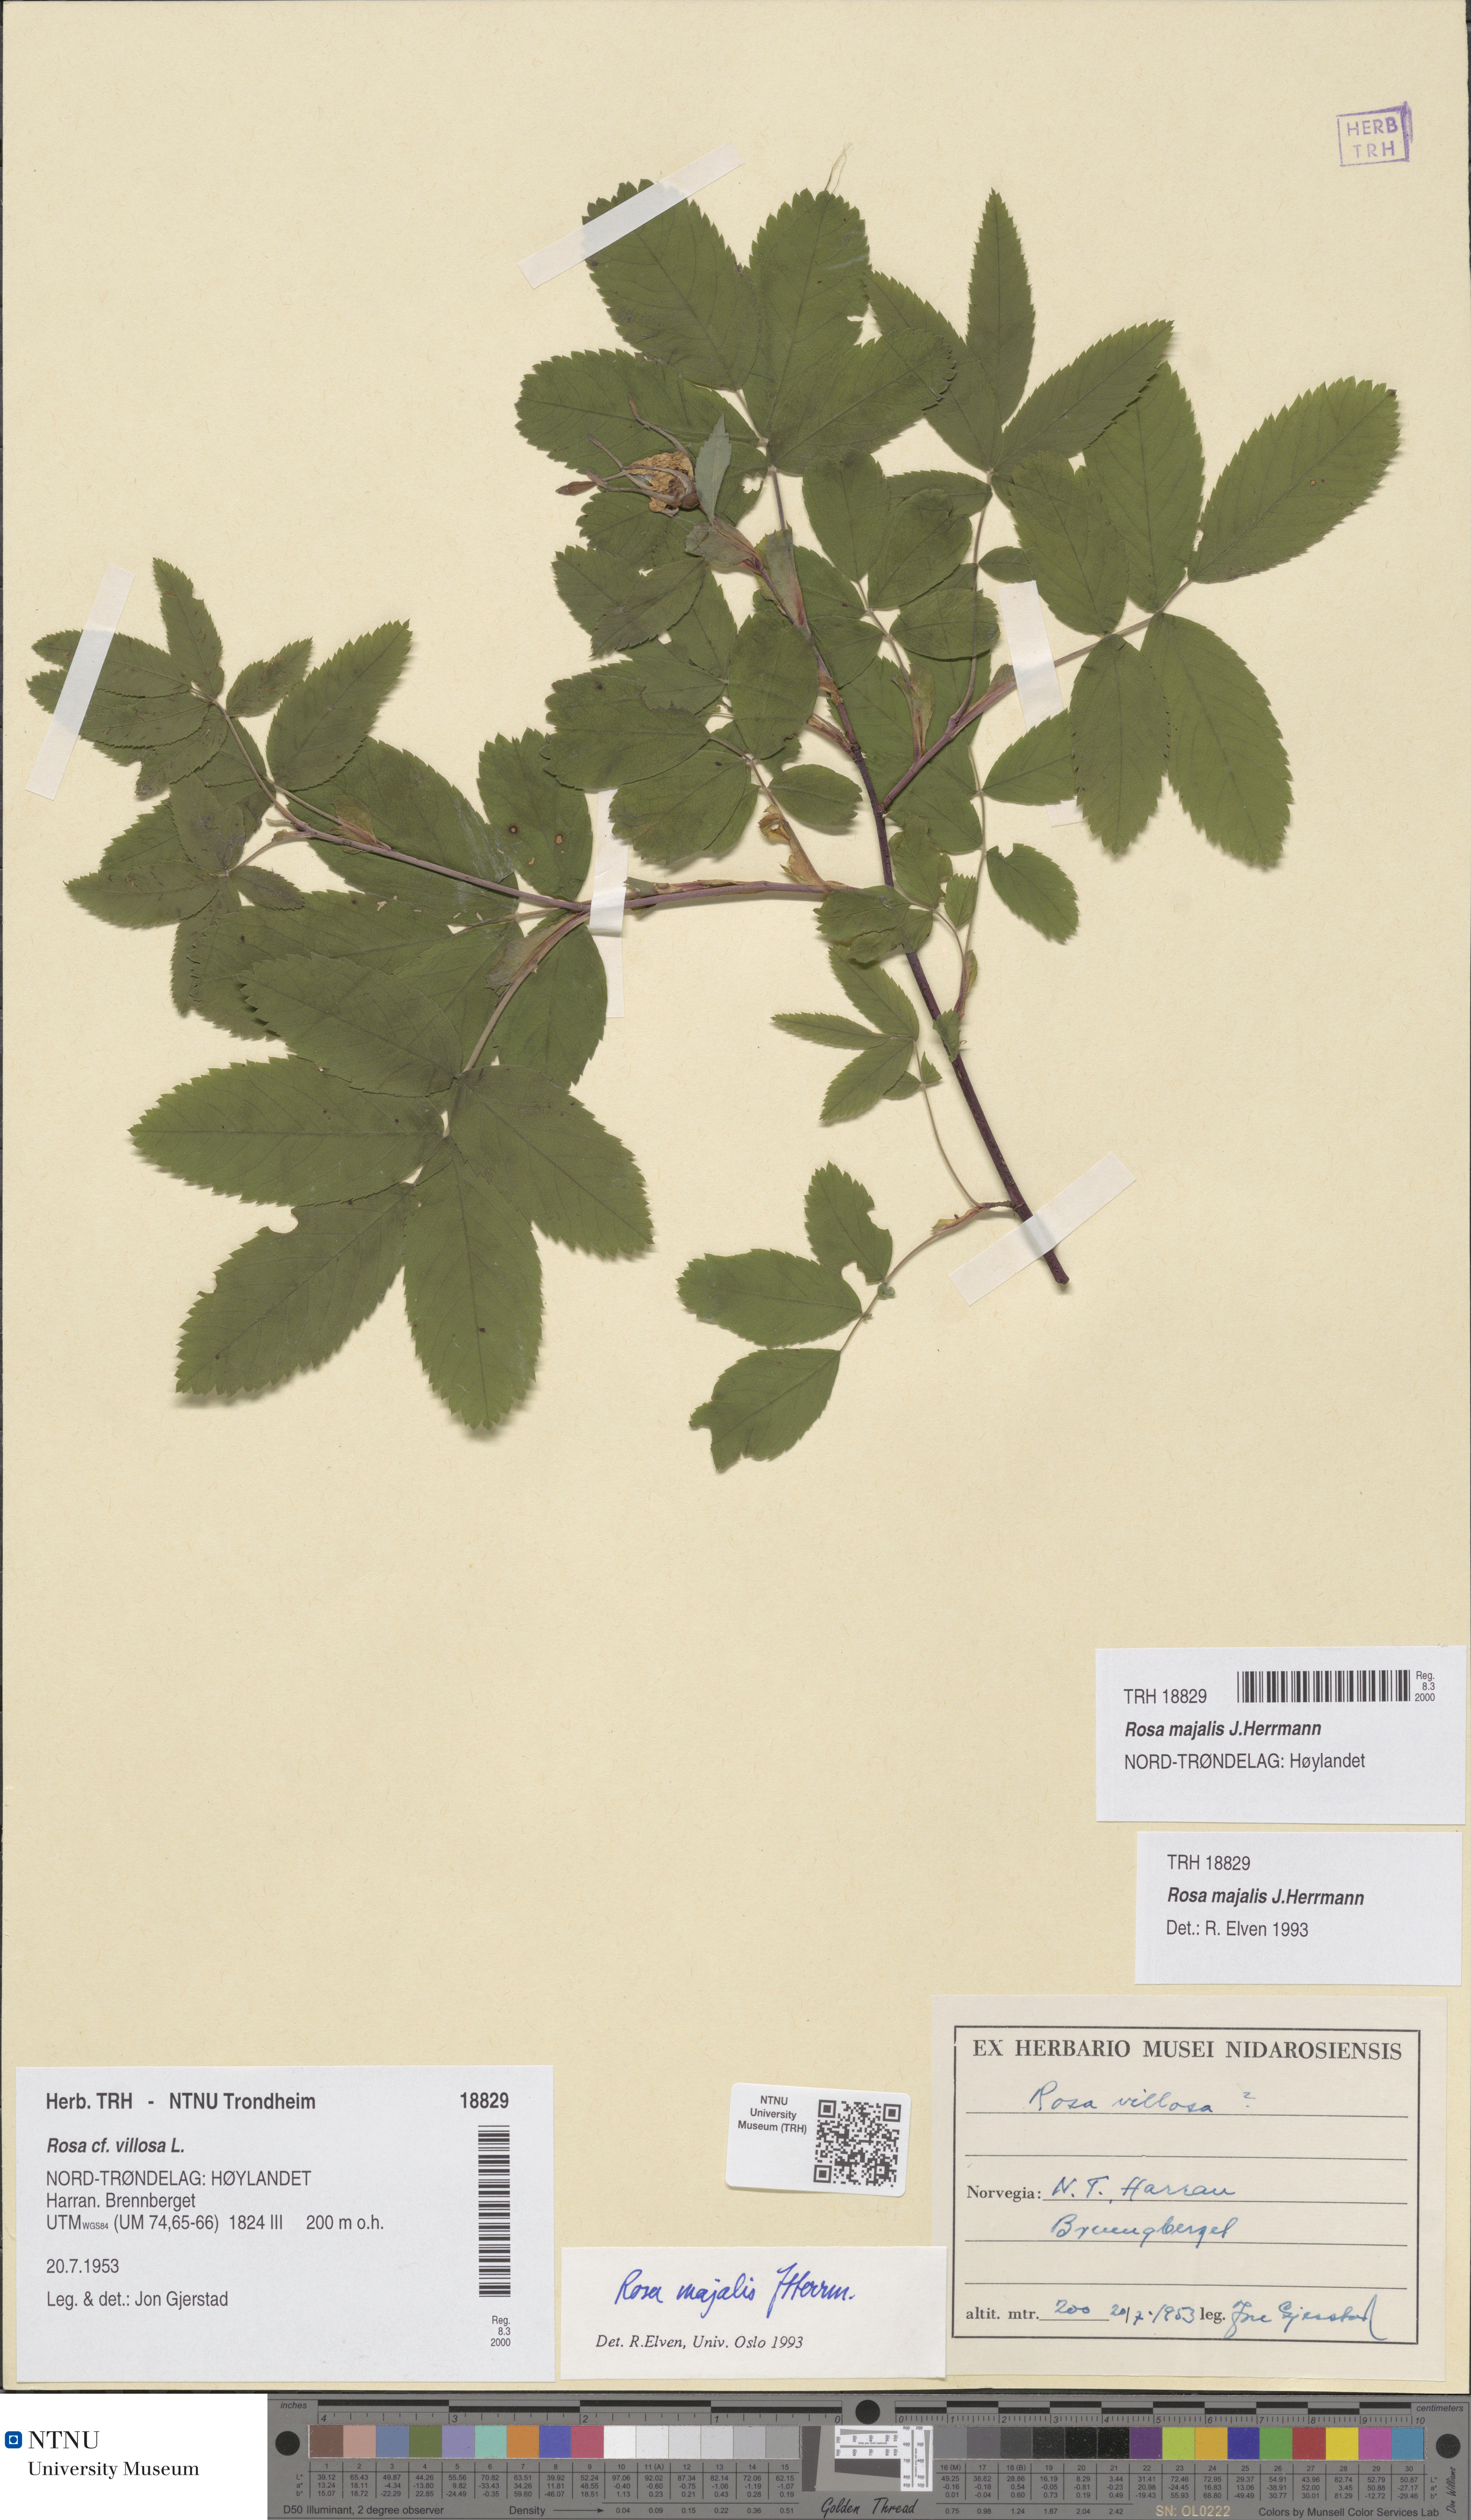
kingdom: Plantae
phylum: Tracheophyta
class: Magnoliopsida
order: Rosales
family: Rosaceae
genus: Rosa
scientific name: Rosa majalis
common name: Cinnamon rose
